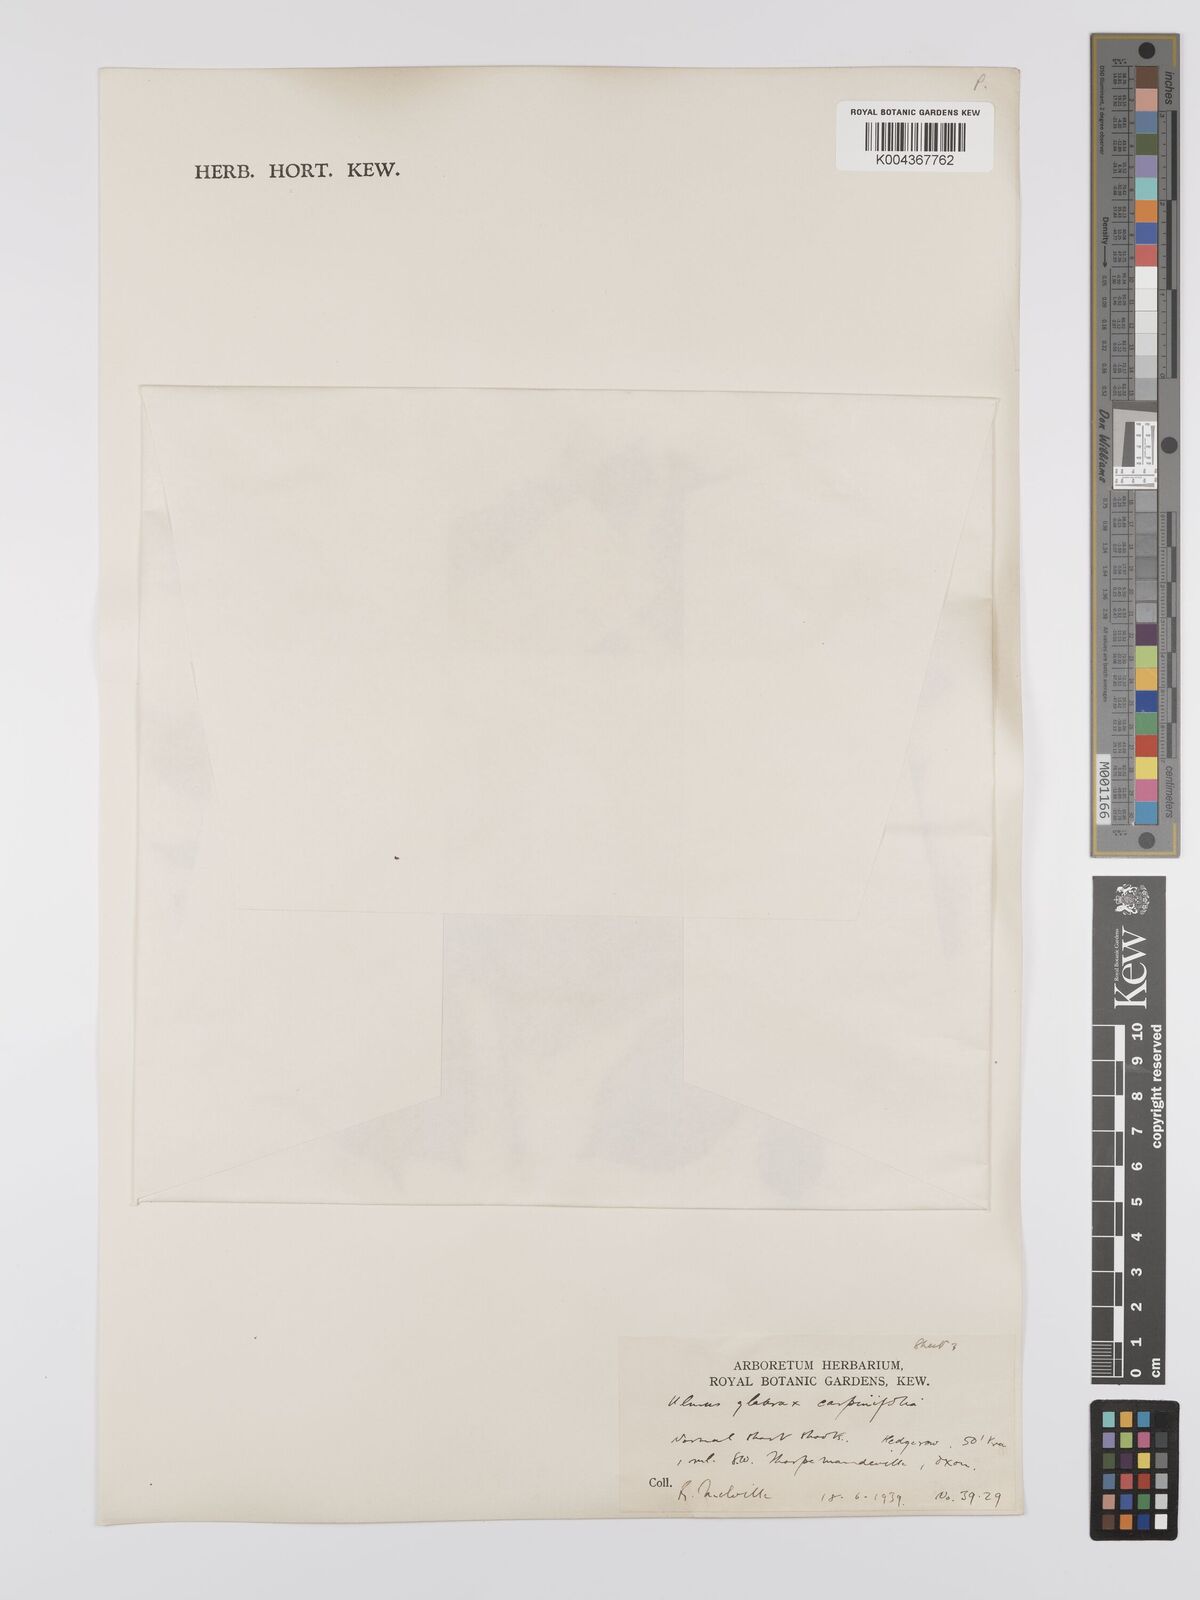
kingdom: Plantae
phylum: Tracheophyta
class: Magnoliopsida
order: Rosales
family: Ulmaceae
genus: Ulmus
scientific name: Ulmus
